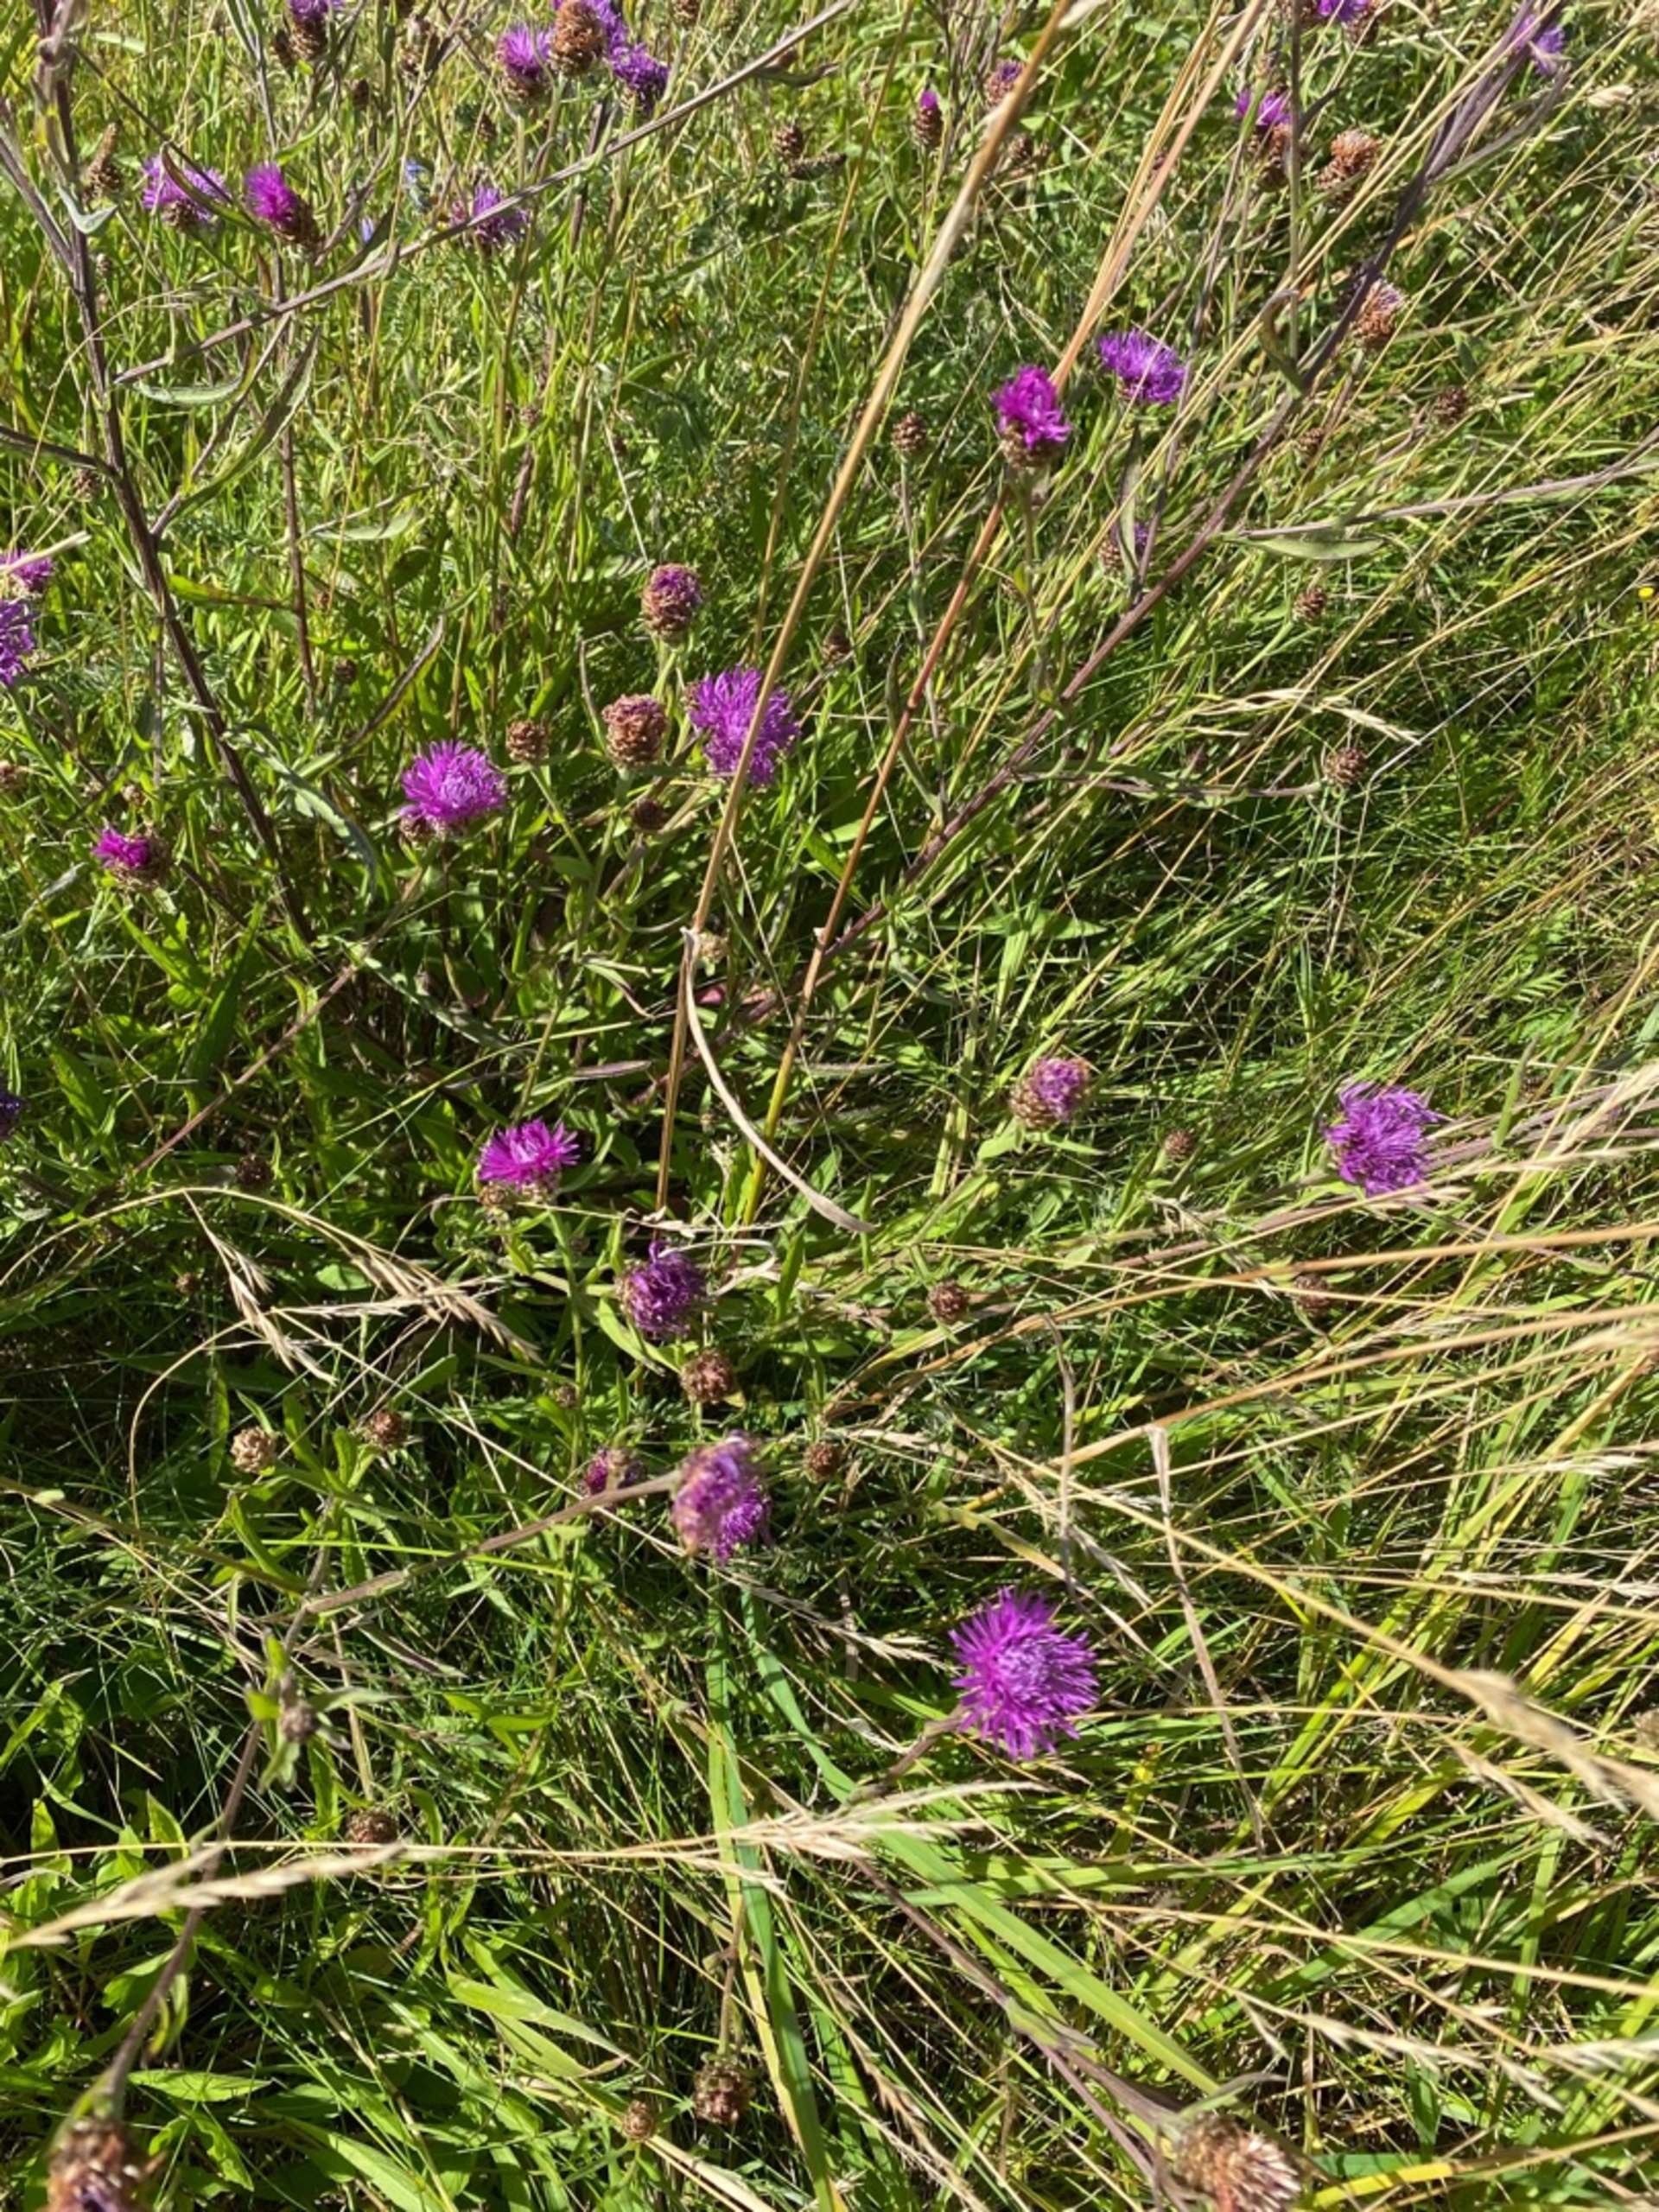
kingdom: Plantae
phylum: Tracheophyta
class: Magnoliopsida
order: Asterales
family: Asteraceae
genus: Centaurea
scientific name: Centaurea jacea
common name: Almindelig knopurt
